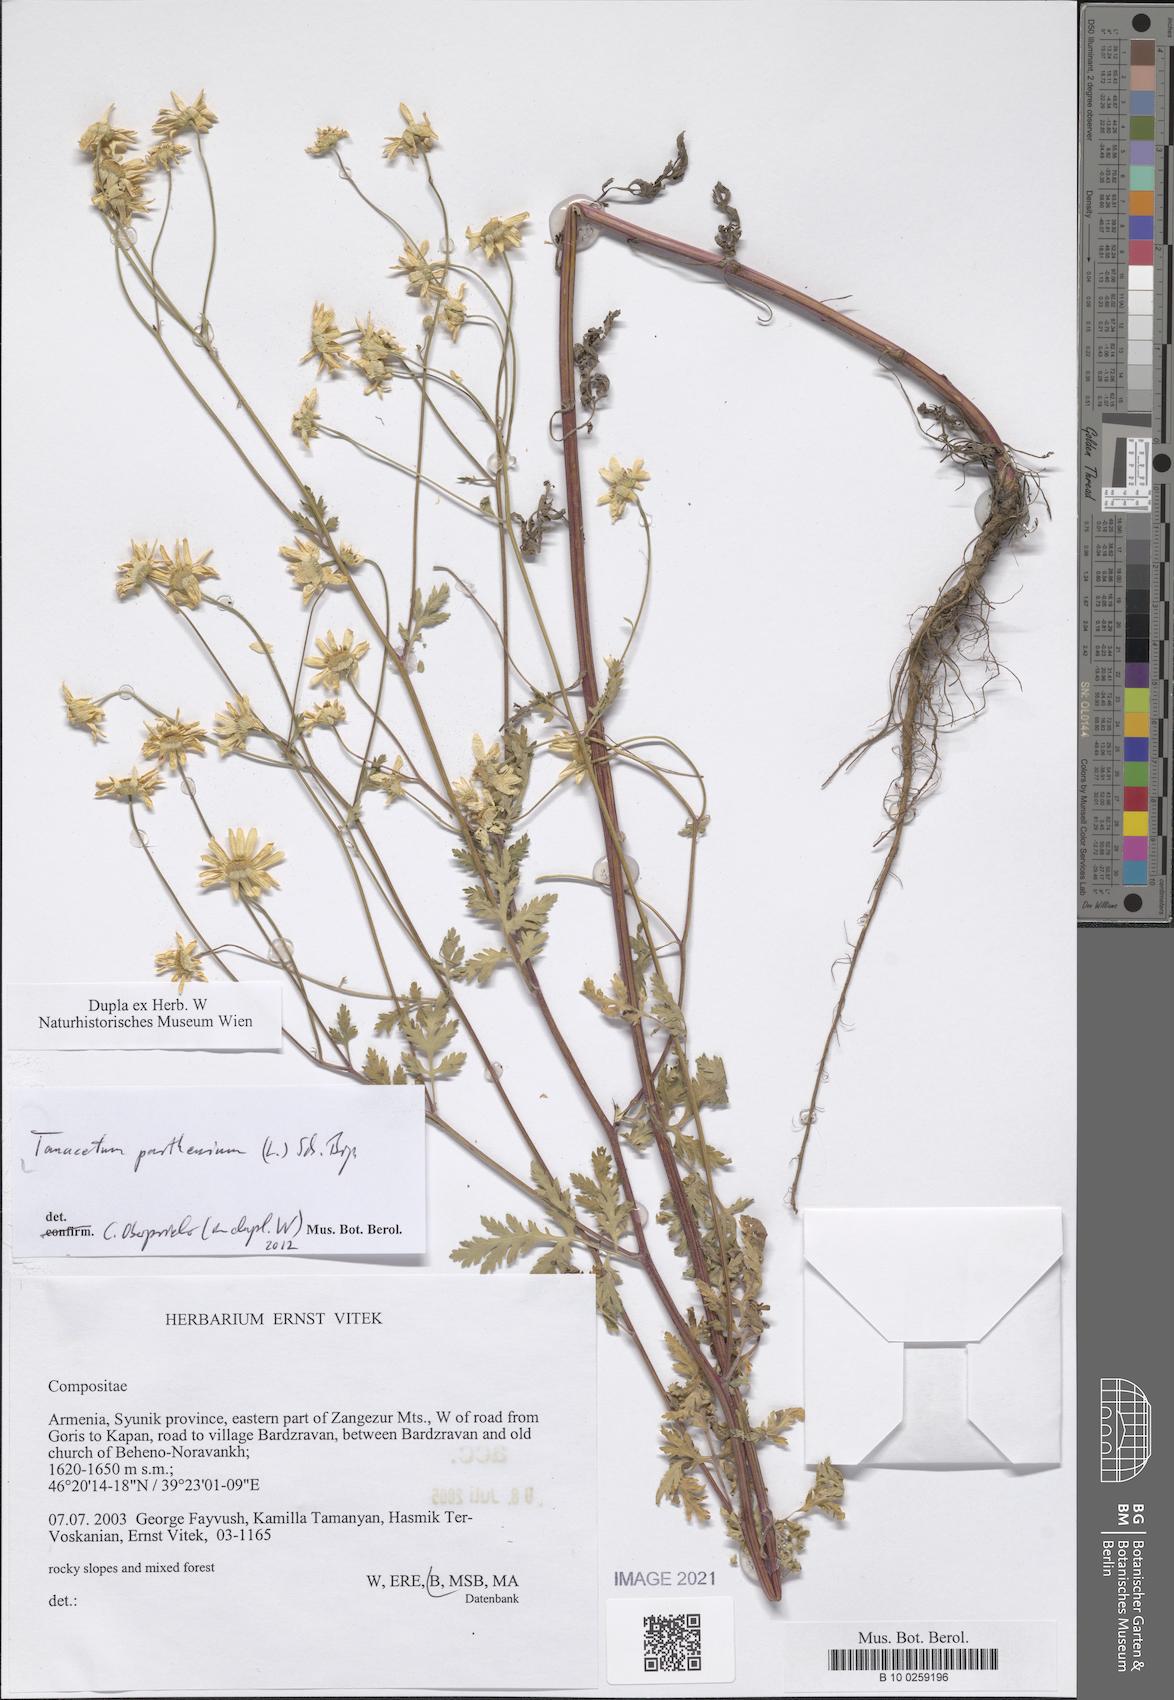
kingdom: Plantae
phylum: Tracheophyta
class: Magnoliopsida
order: Asterales
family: Asteraceae
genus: Tanacetum
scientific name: Tanacetum parthenium
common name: Feverfew
